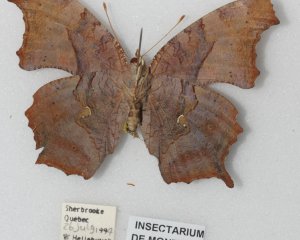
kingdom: Animalia
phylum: Arthropoda
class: Insecta
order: Lepidoptera
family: Nymphalidae
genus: Polygonia
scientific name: Polygonia interrogationis
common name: Question Mark
